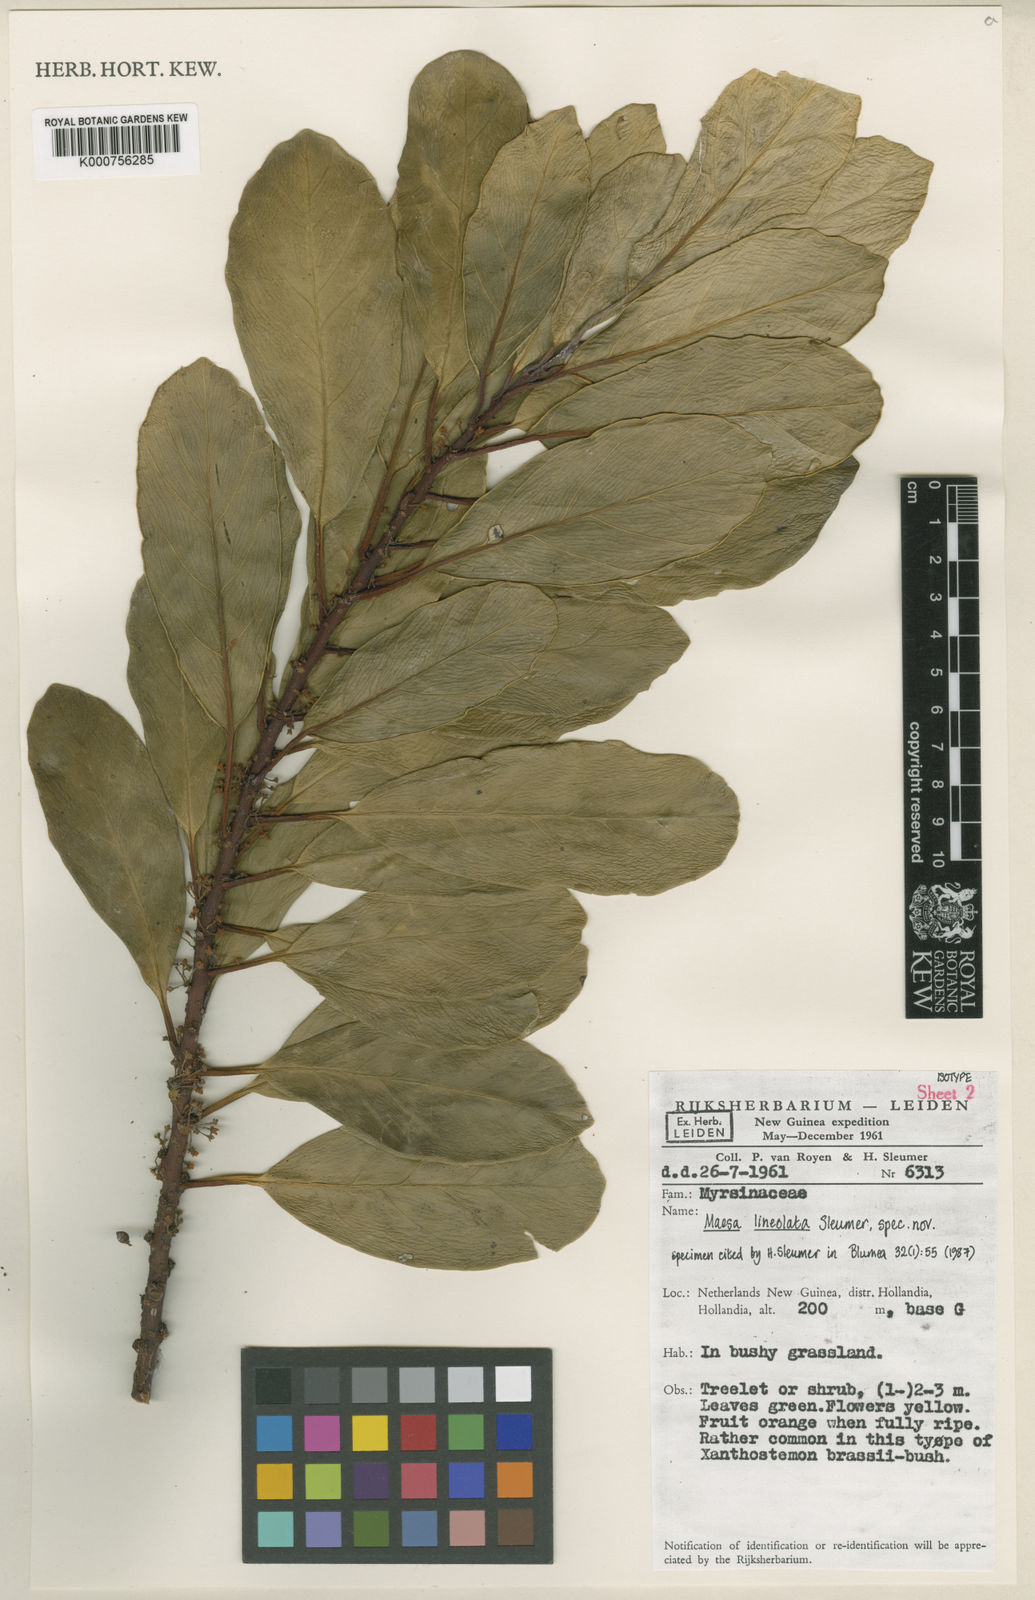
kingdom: Plantae
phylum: Tracheophyta
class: Magnoliopsida
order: Ericales
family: Primulaceae
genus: Maesa
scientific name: Maesa lineolata
